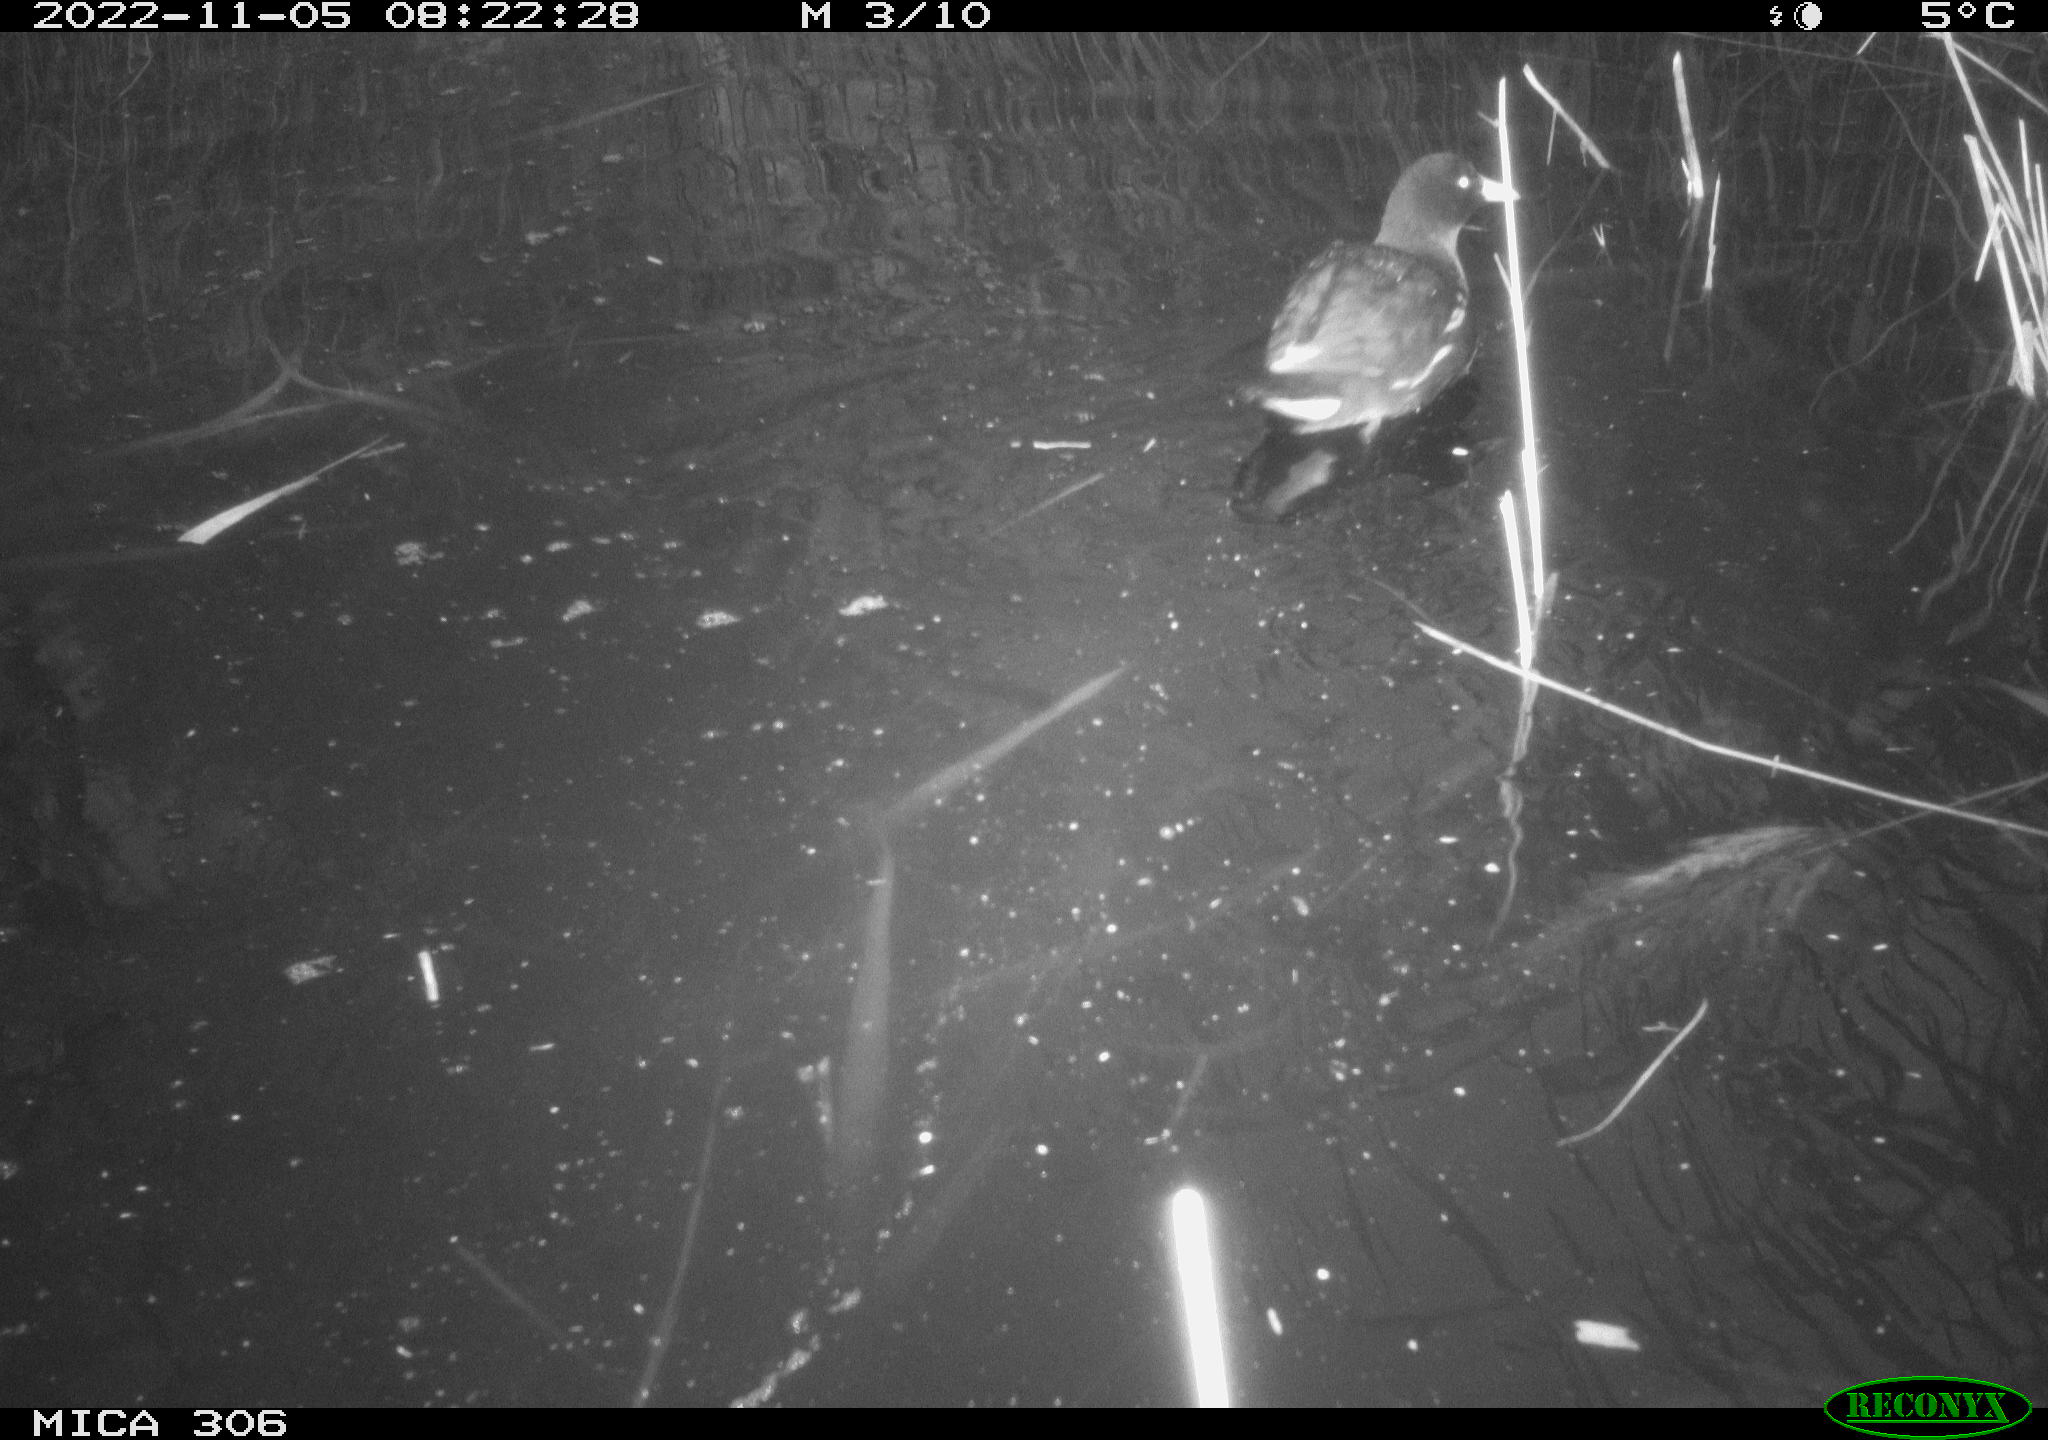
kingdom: Animalia
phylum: Chordata
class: Aves
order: Gruiformes
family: Rallidae
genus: Fulica
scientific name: Fulica atra
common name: Eurasian coot
